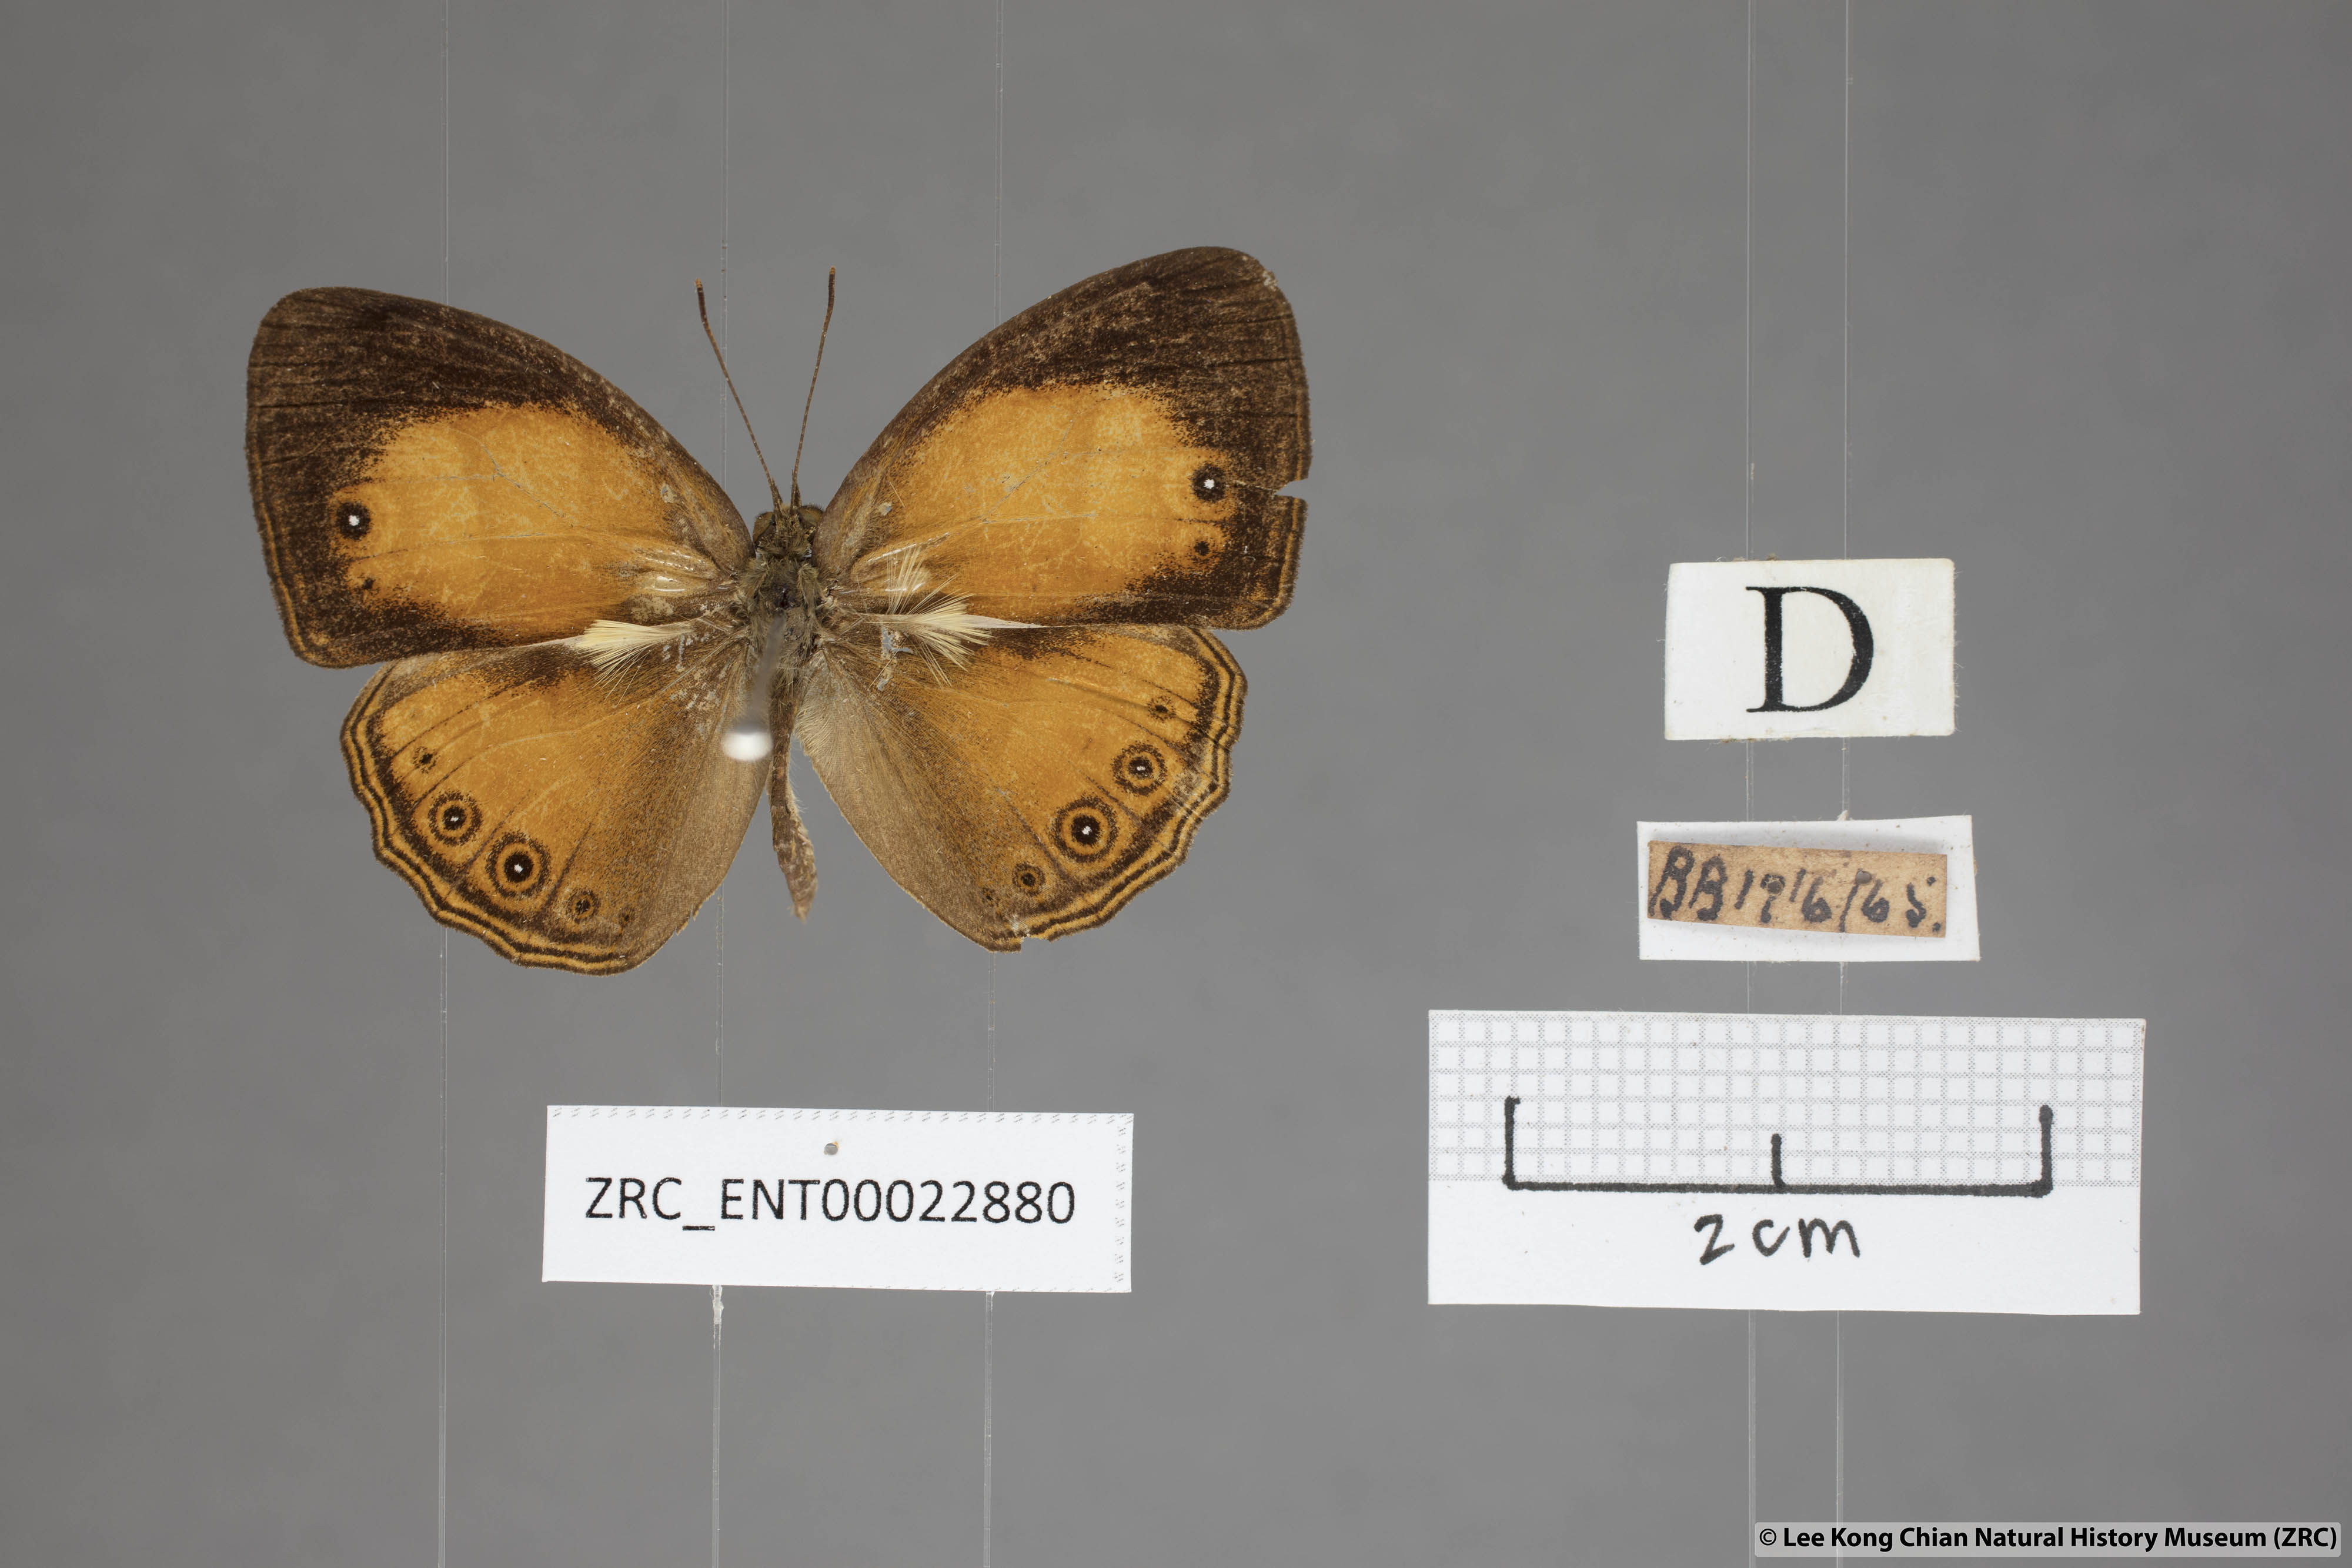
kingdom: Animalia
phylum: Arthropoda
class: Insecta
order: Lepidoptera
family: Nymphalidae
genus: Mycalesis
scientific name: Mycalesis anapita
